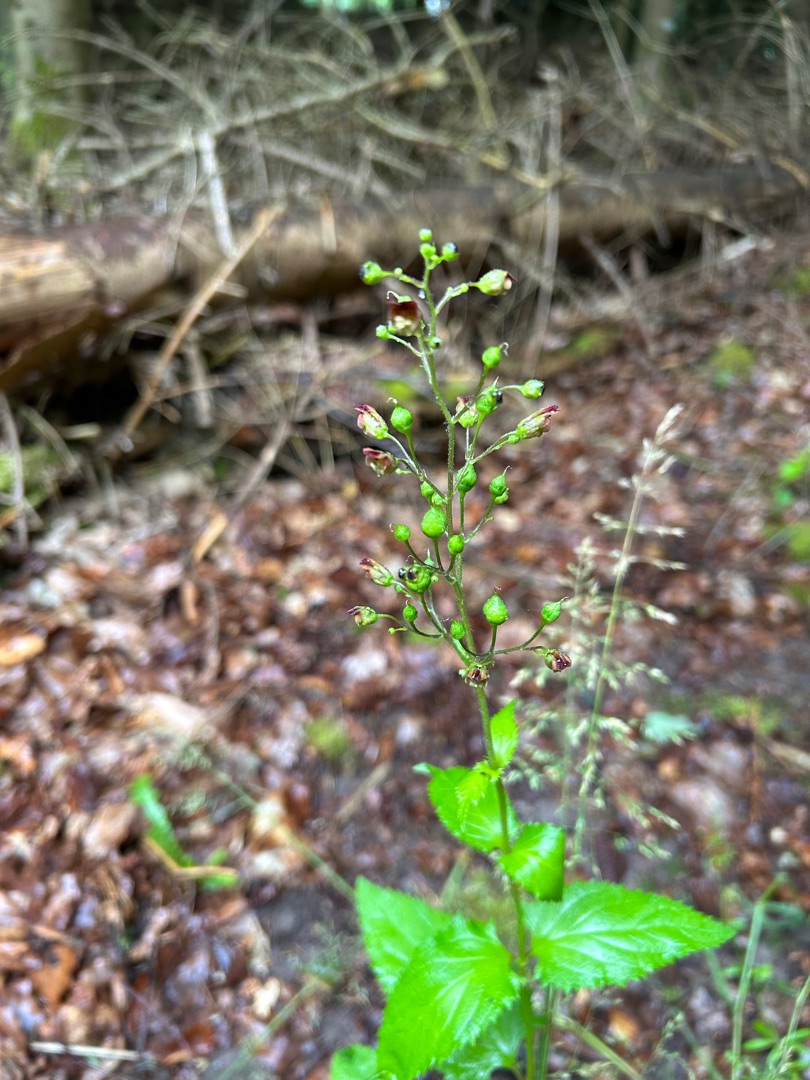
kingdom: Plantae
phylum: Tracheophyta
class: Magnoliopsida
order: Lamiales
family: Scrophulariaceae
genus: Scrophularia
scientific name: Scrophularia nodosa
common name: Knoldet brunrod
